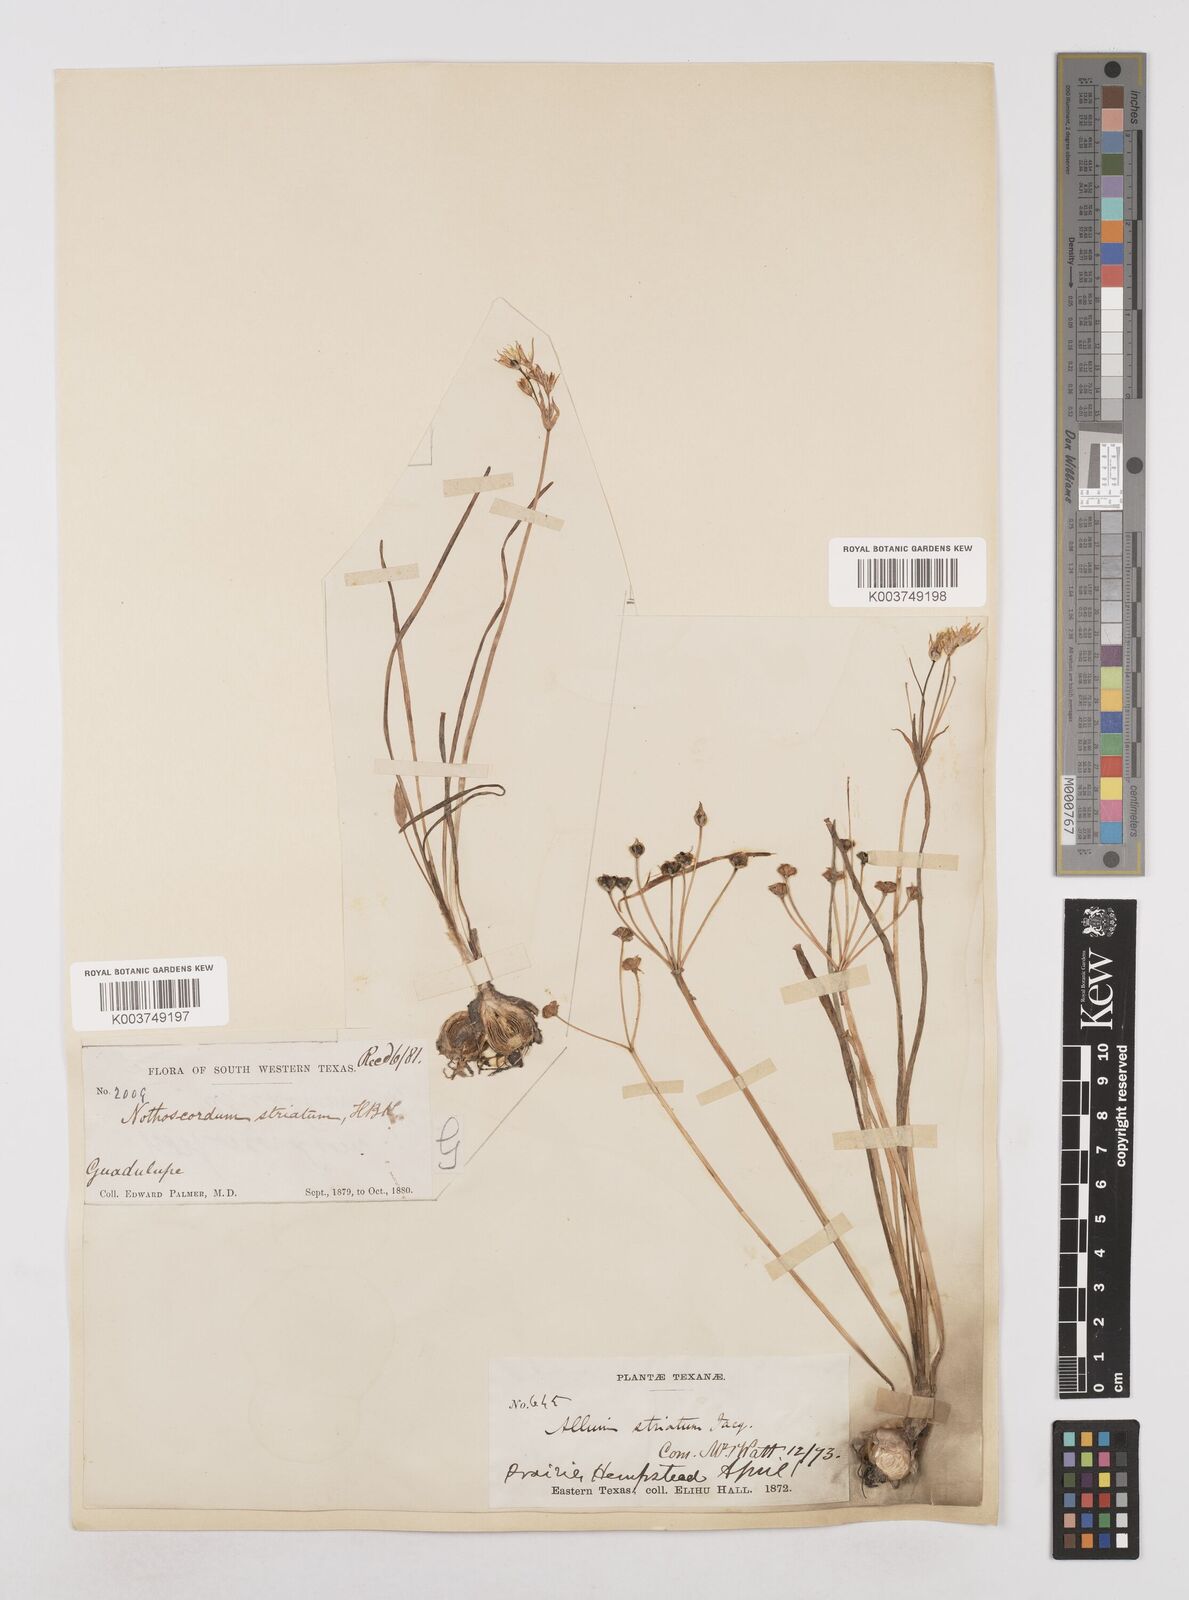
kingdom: Plantae
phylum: Tracheophyta
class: Liliopsida
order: Asparagales
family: Amaryllidaceae
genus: Nothoscordum
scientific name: Nothoscordum bivalve
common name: Crow-poison
